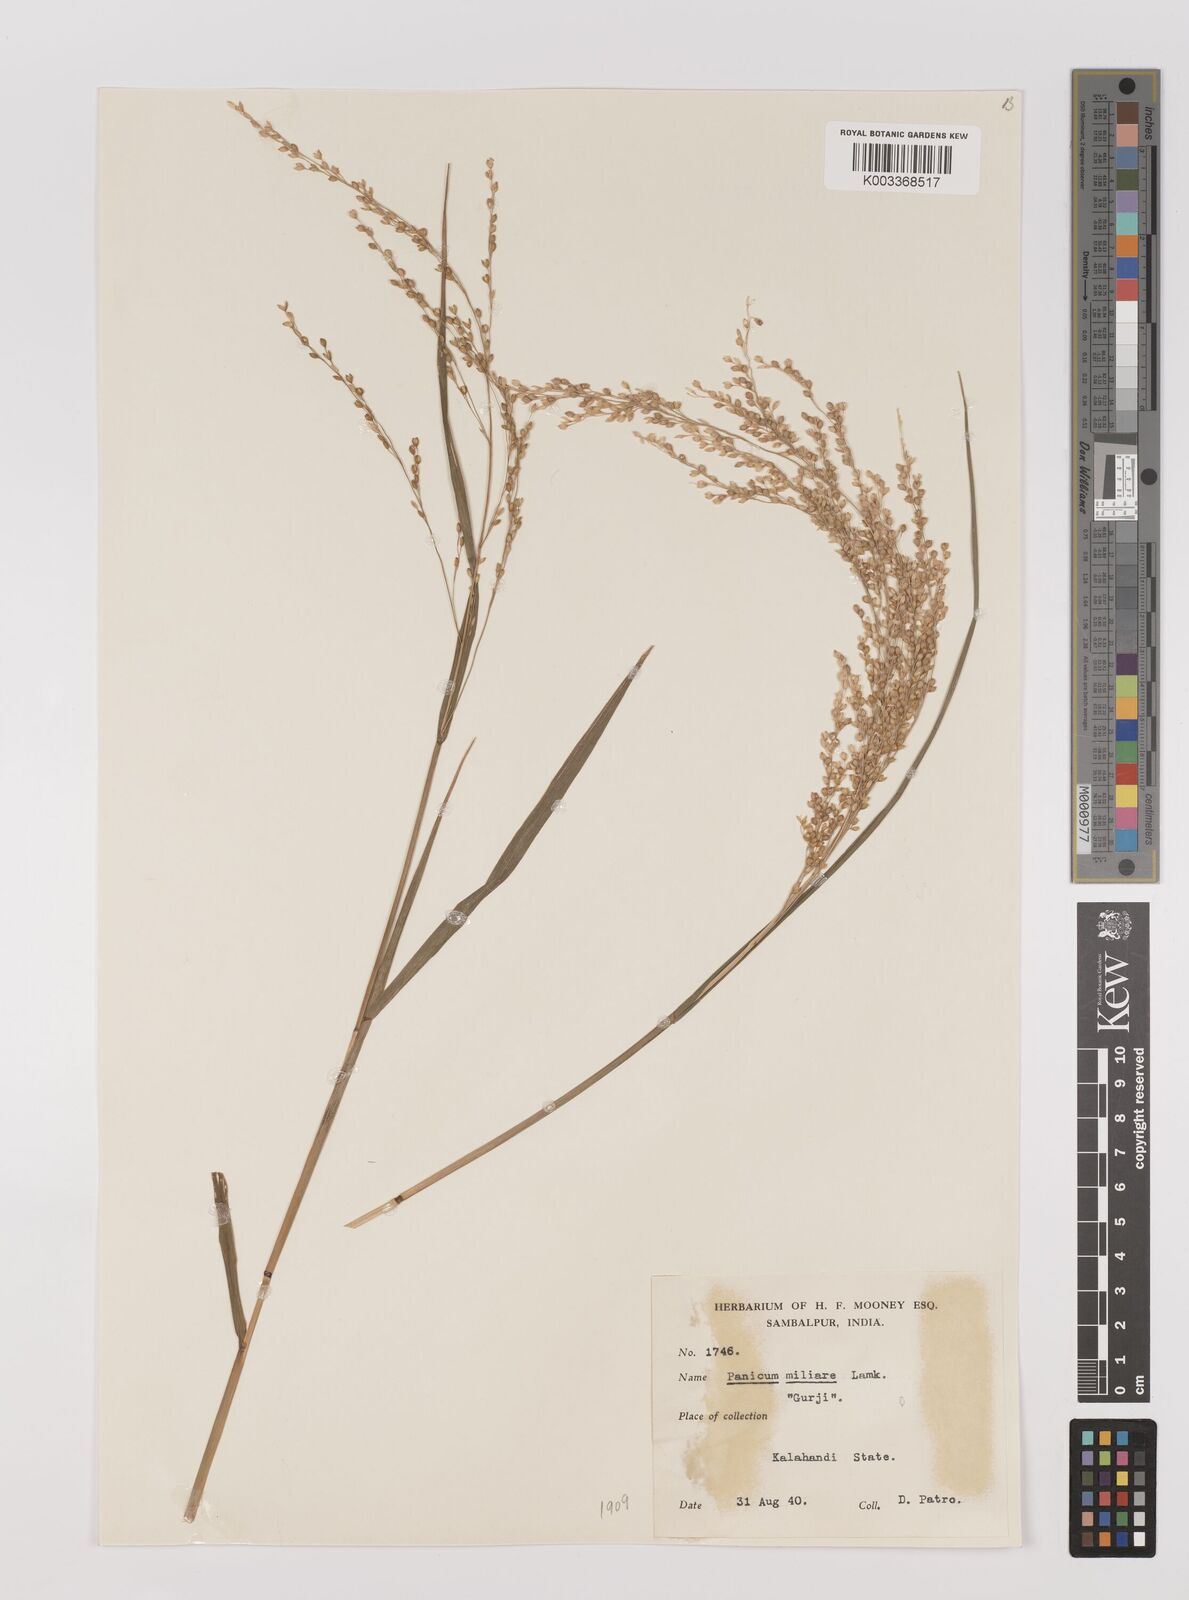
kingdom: Plantae
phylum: Tracheophyta
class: Liliopsida
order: Poales
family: Poaceae
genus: Panicum
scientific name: Panicum sumatrense
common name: Little millet
